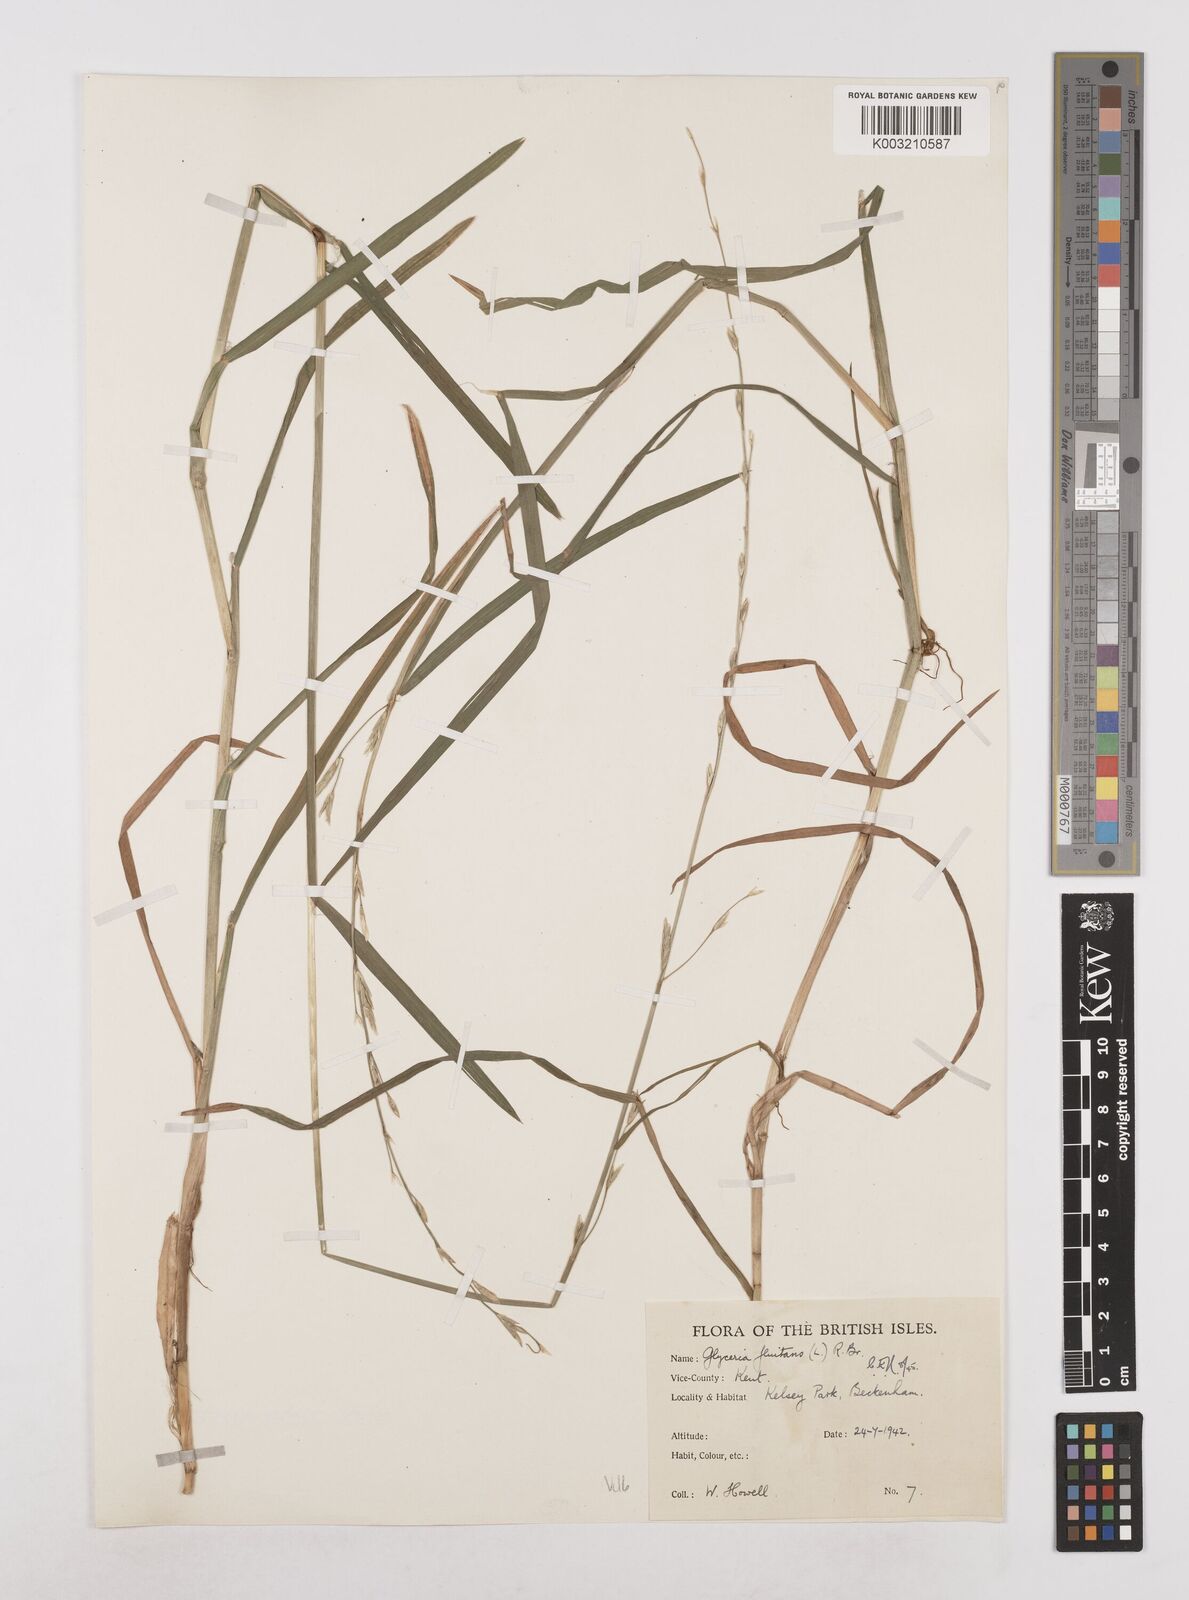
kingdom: Plantae
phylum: Tracheophyta
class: Liliopsida
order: Poales
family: Poaceae
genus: Glyceria
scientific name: Glyceria fluitans
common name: Floating sweet-grass
